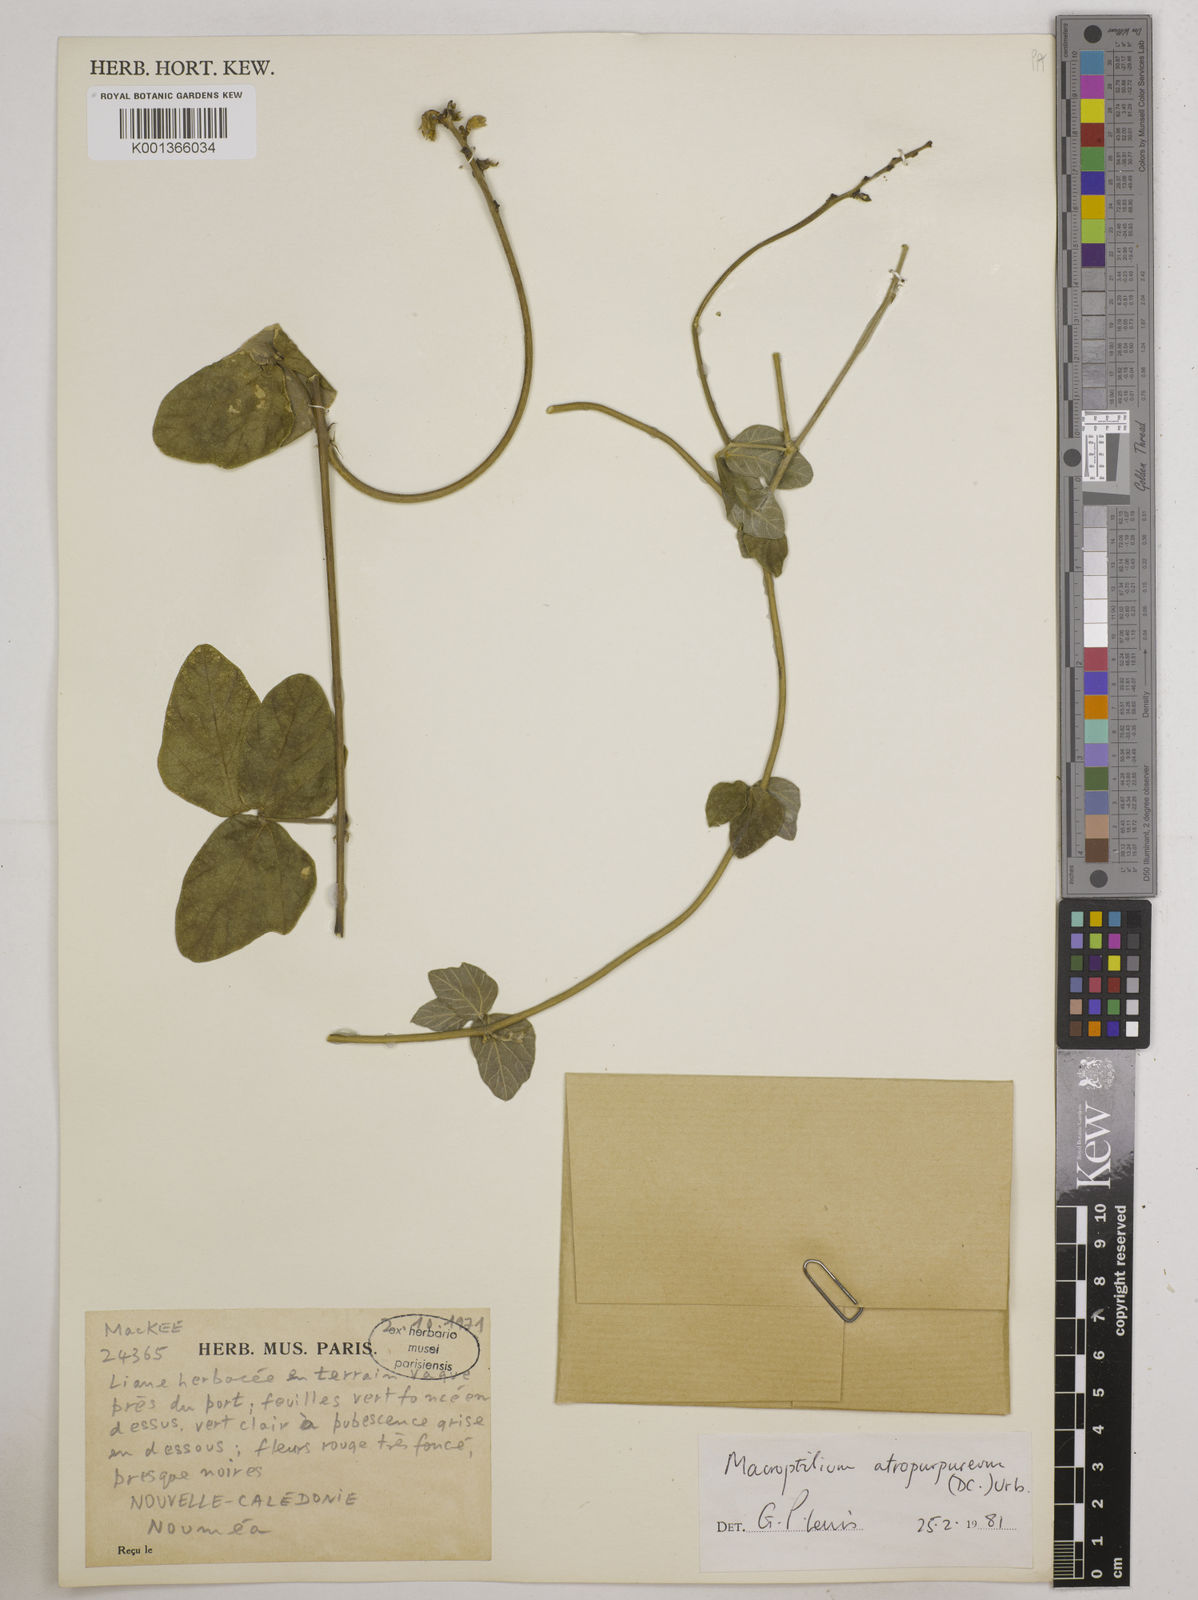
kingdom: Plantae
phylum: Tracheophyta
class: Magnoliopsida
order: Fabales
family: Fabaceae
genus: Macroptilium
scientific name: Macroptilium atropurpureum
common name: Purple bushbean
